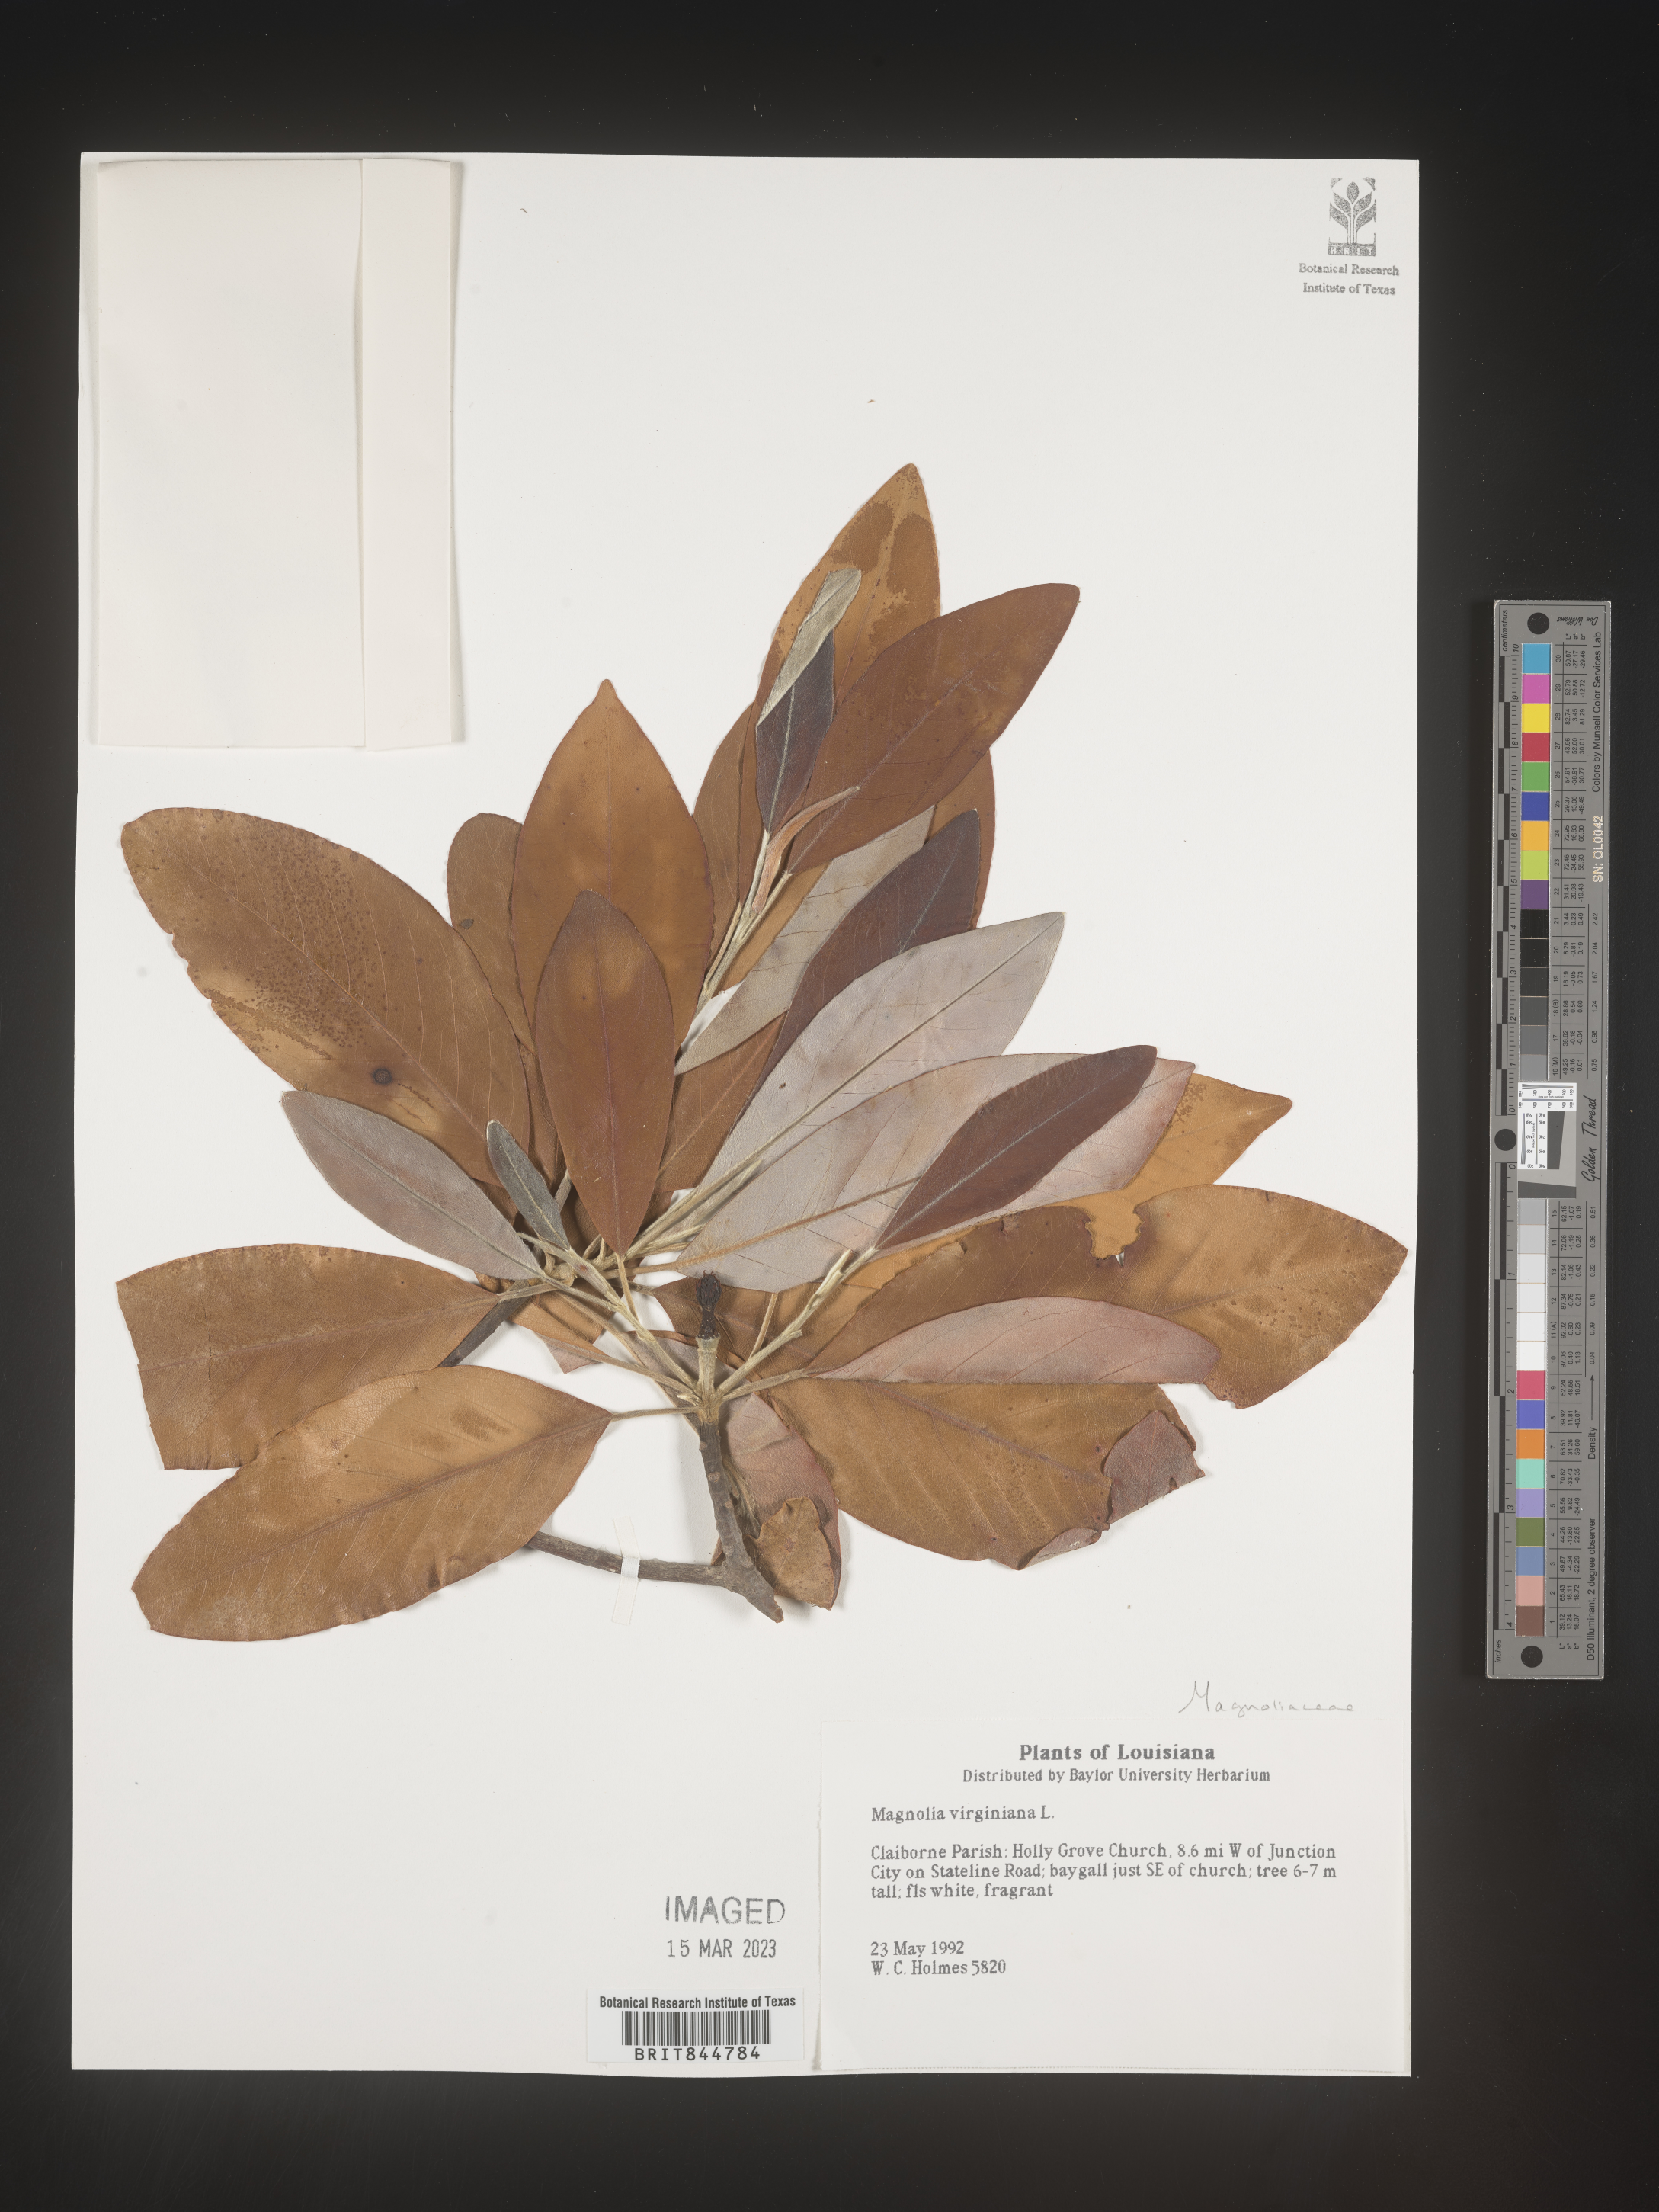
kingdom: Plantae
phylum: Tracheophyta
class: Magnoliopsida
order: Magnoliales
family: Magnoliaceae
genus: Magnolia
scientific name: Magnolia virginiana
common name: Swamp bay
